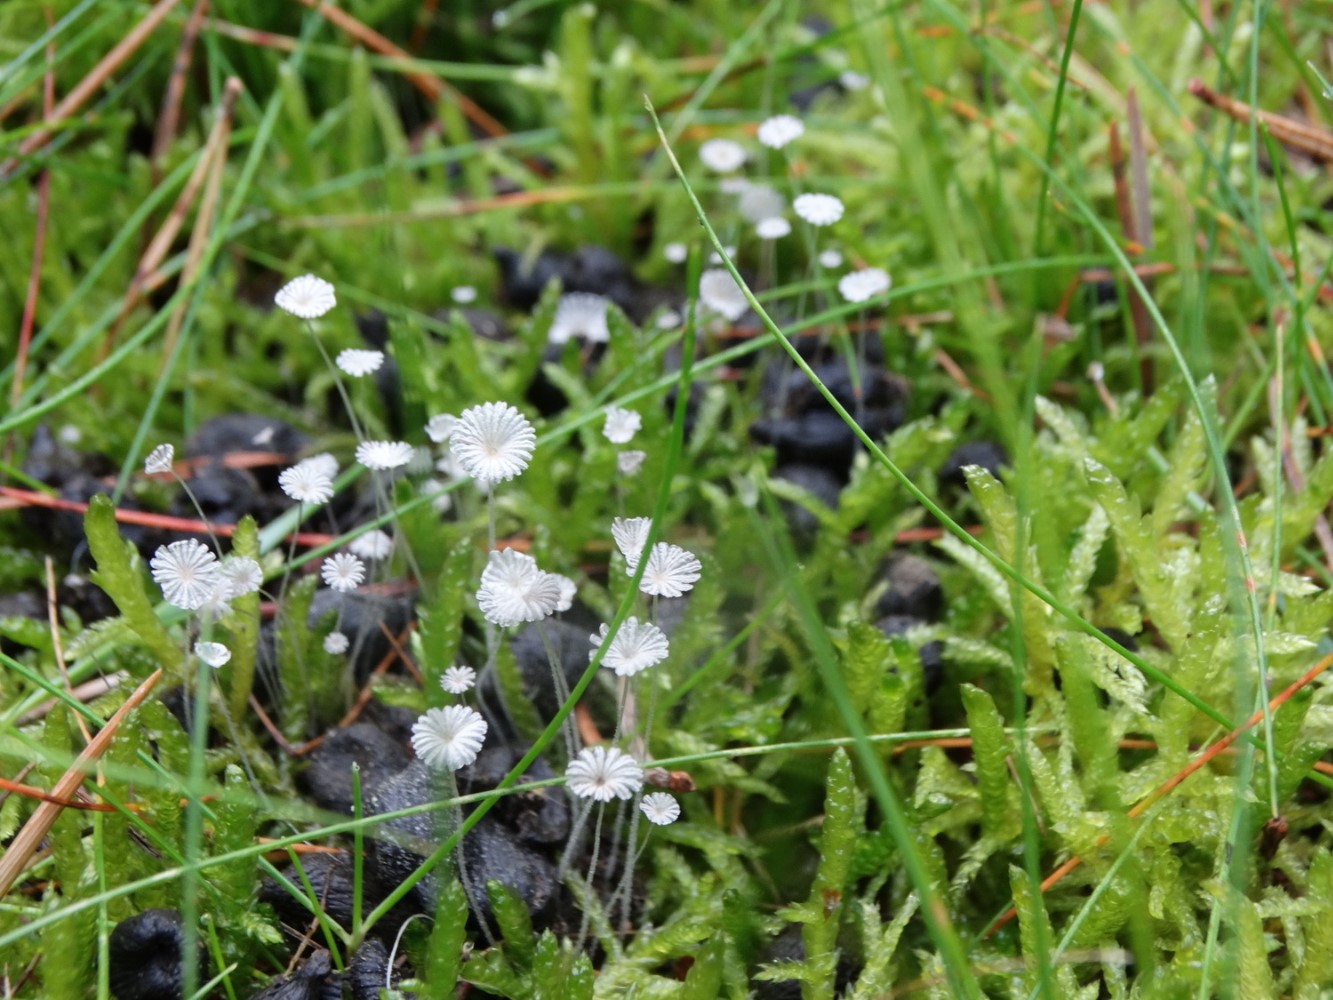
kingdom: Fungi
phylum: Basidiomycota
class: Agaricomycetes
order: Agaricales
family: Psathyrellaceae
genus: Coprinellus
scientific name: Coprinellus
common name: blækhat
